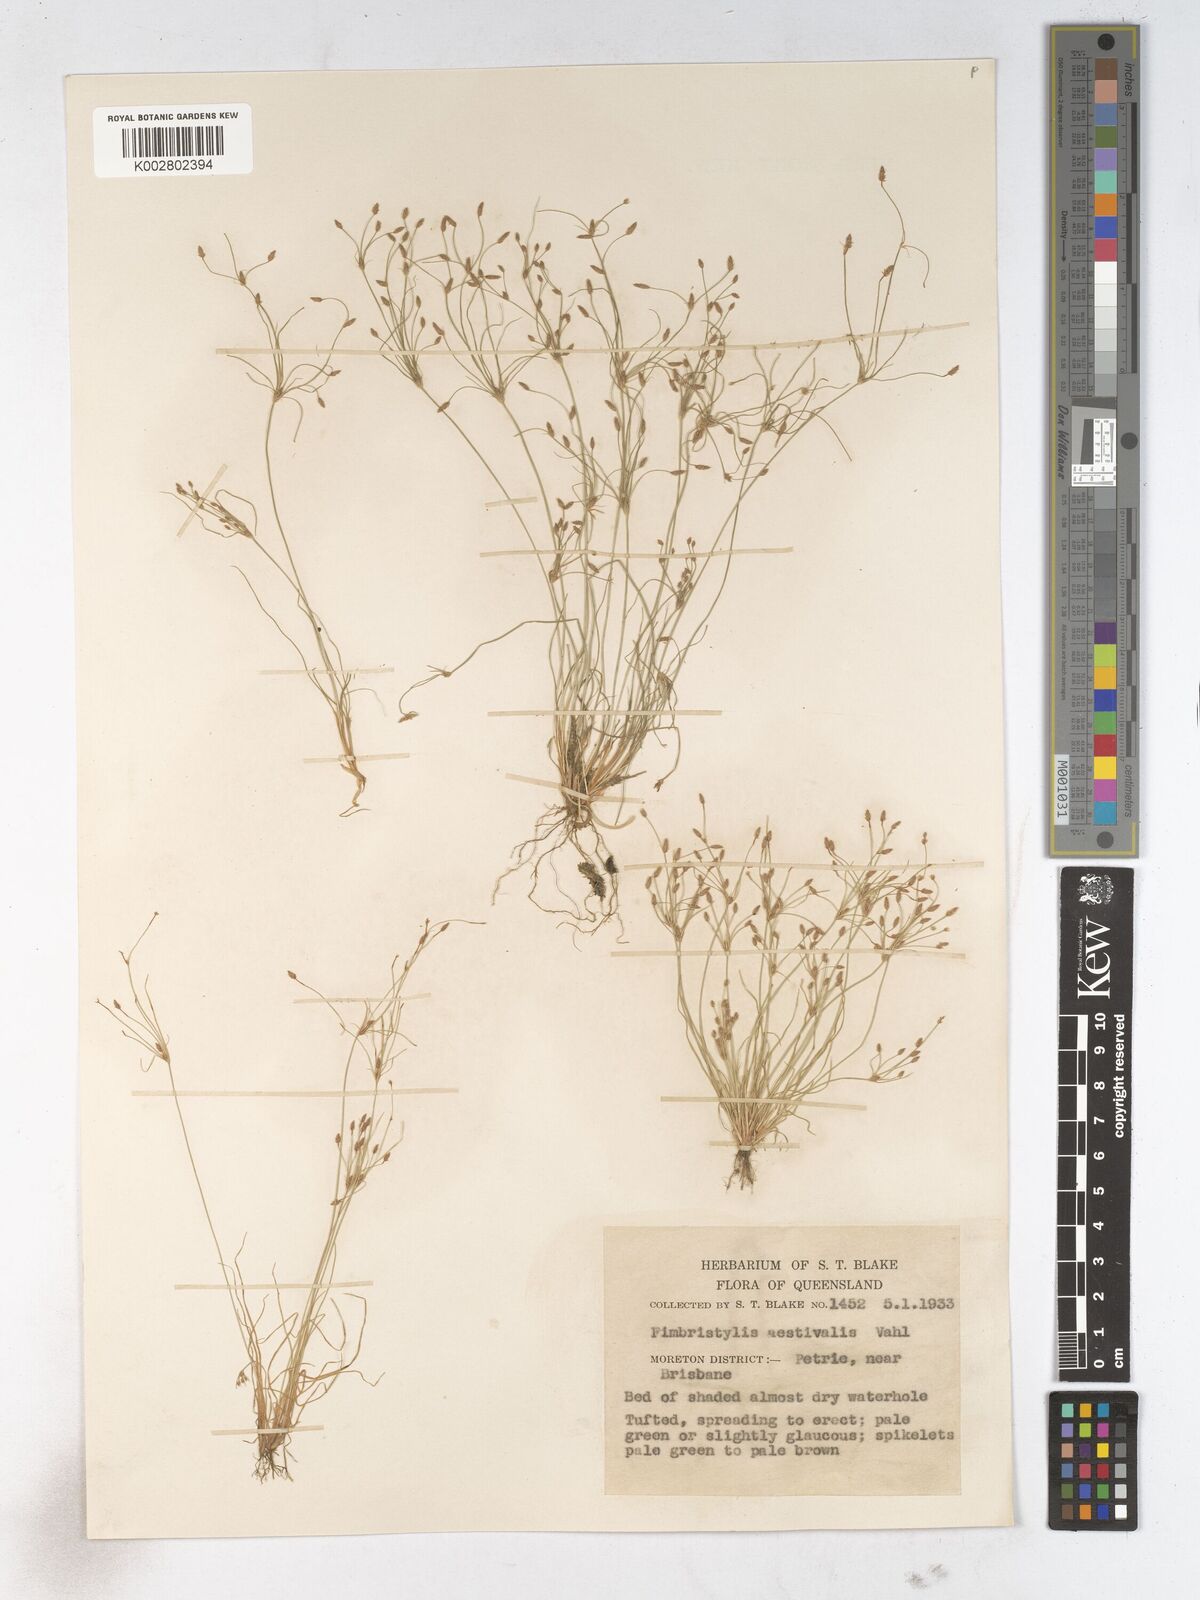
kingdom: Plantae
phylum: Tracheophyta
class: Liliopsida
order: Poales
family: Cyperaceae
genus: Fimbristylis
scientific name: Fimbristylis aestivalis
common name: Summer fimbry
